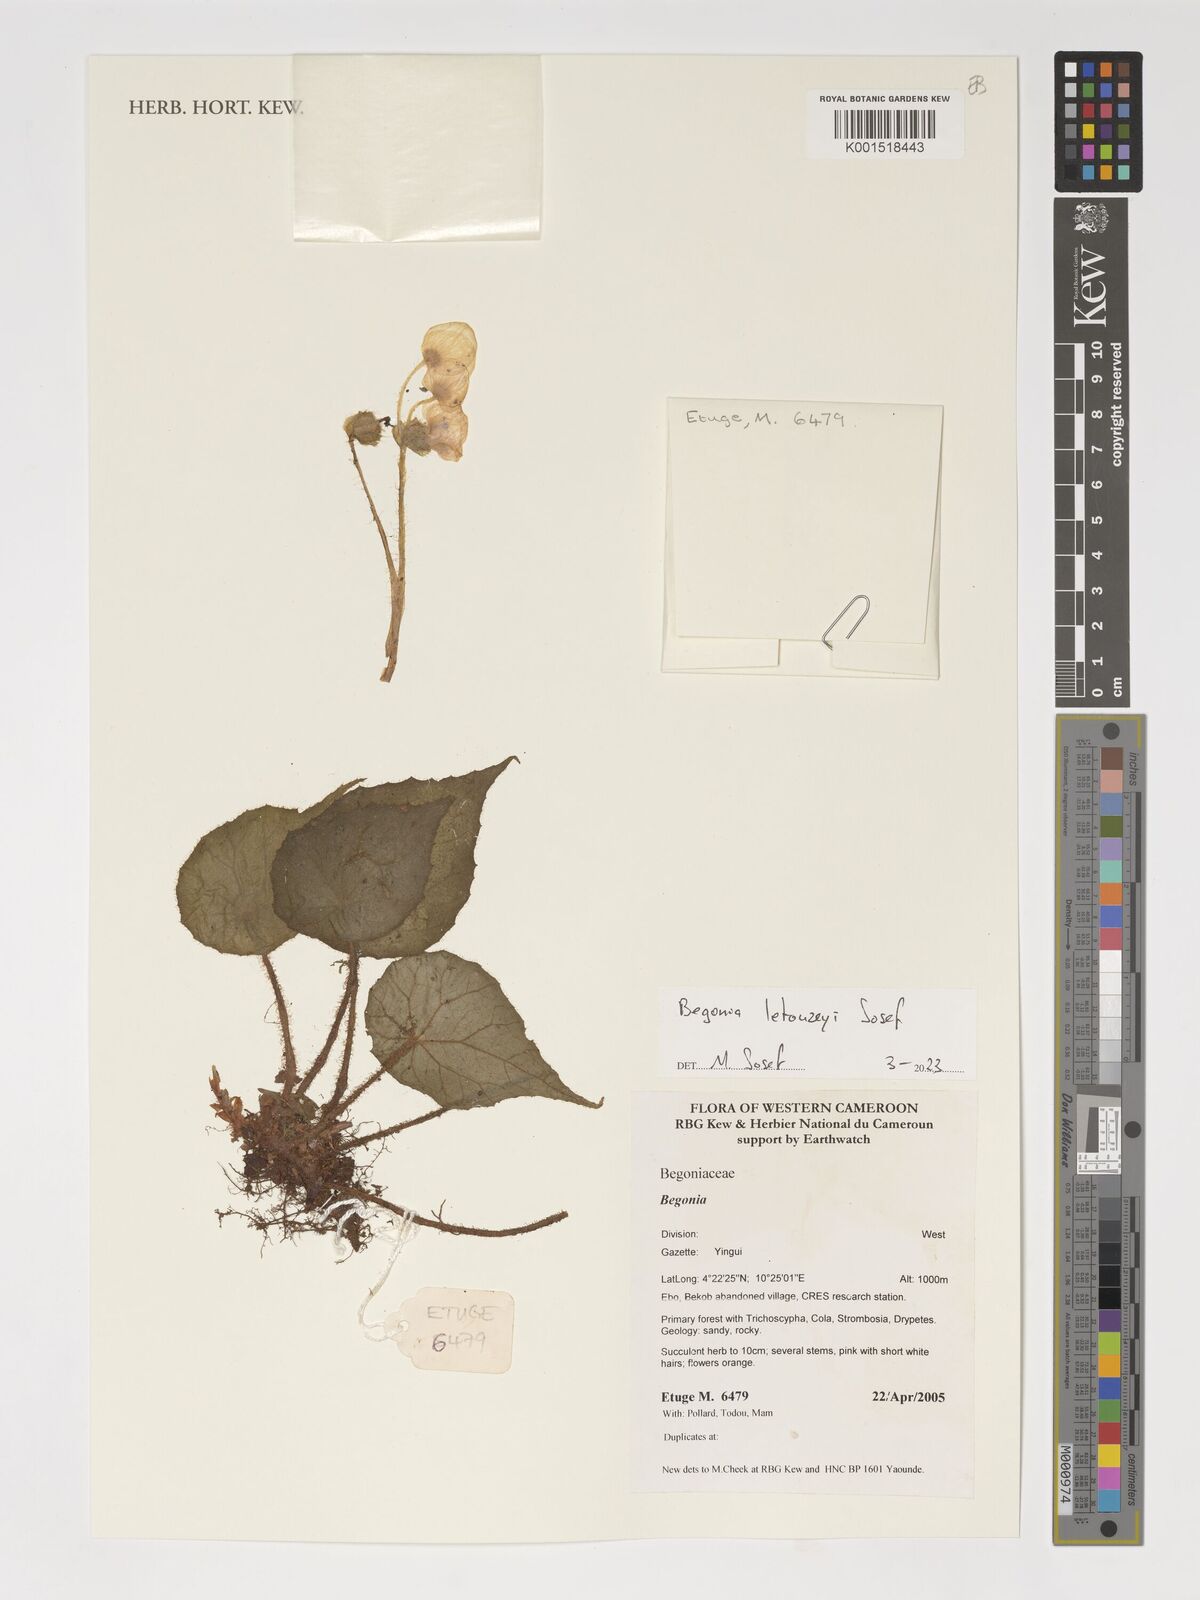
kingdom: Plantae
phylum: Tracheophyta
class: Magnoliopsida
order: Cucurbitales
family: Begoniaceae
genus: Begonia
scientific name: Begonia letouzeyi
